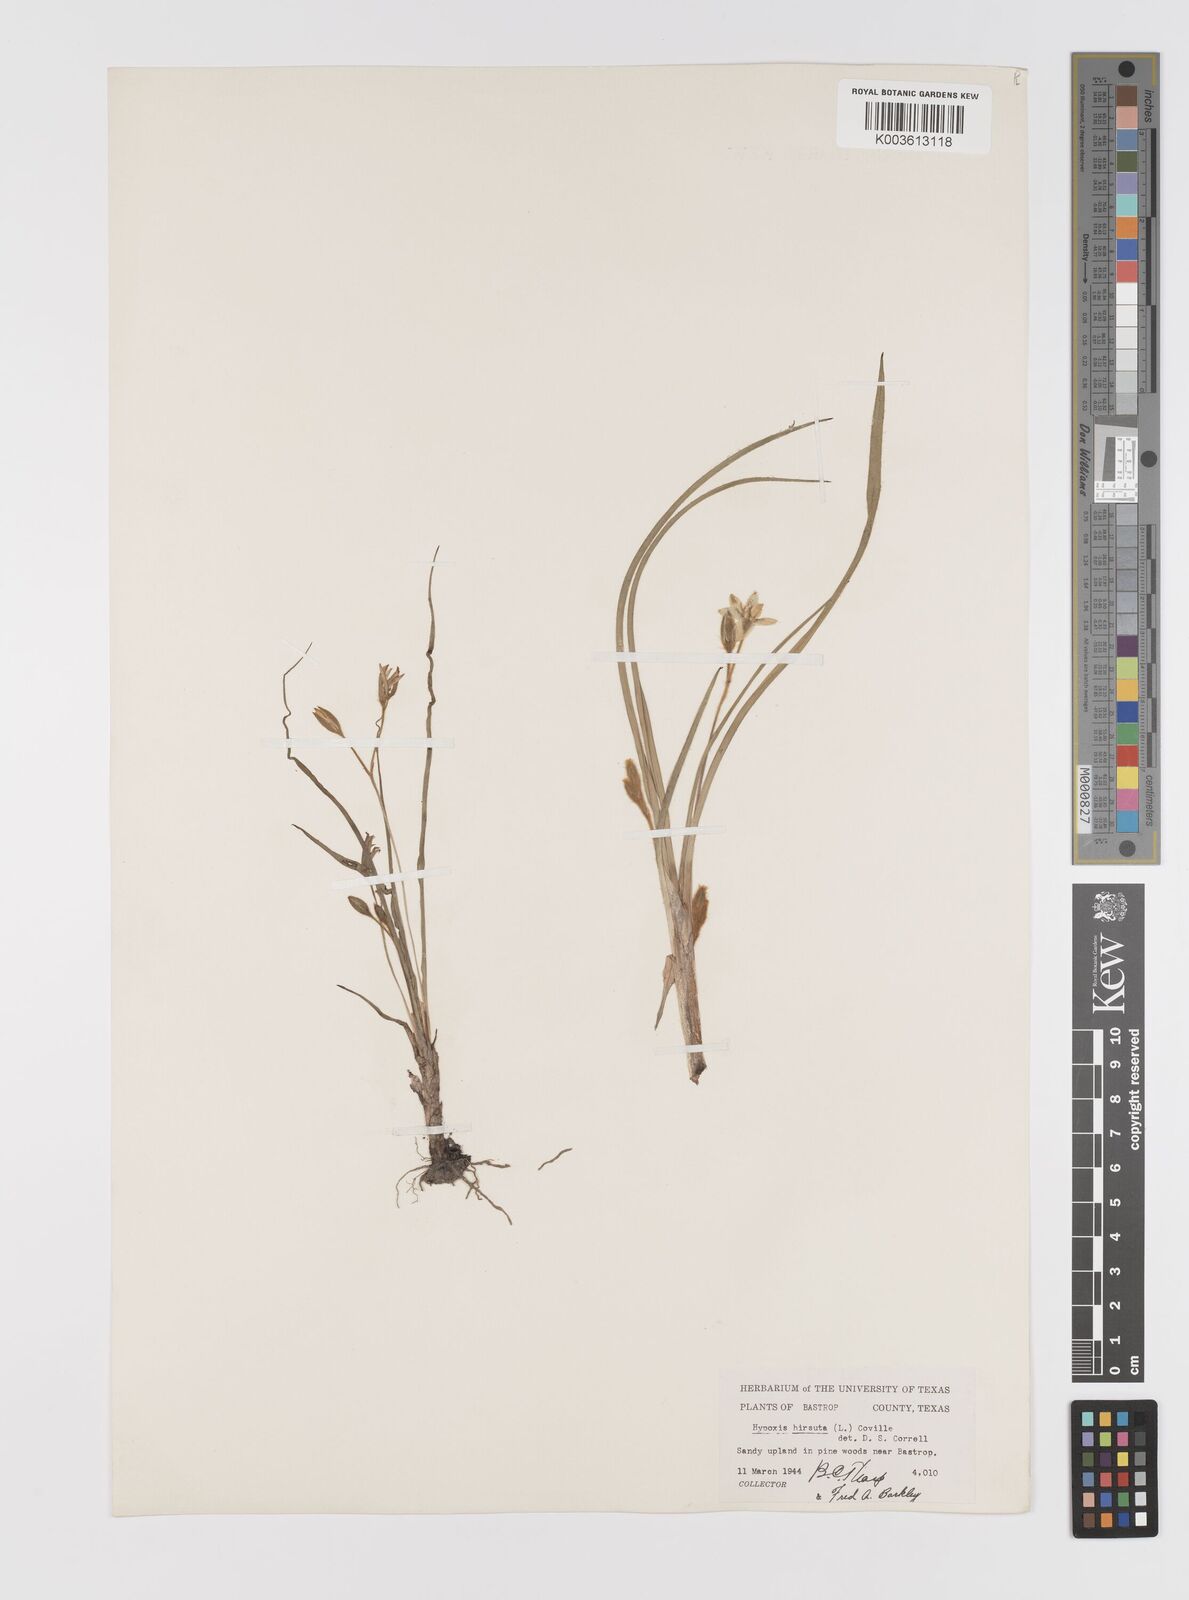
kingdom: Plantae
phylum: Tracheophyta
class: Liliopsida
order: Asparagales
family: Hypoxidaceae
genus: Hypoxis
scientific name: Hypoxis hirsuta
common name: Common goldstar
